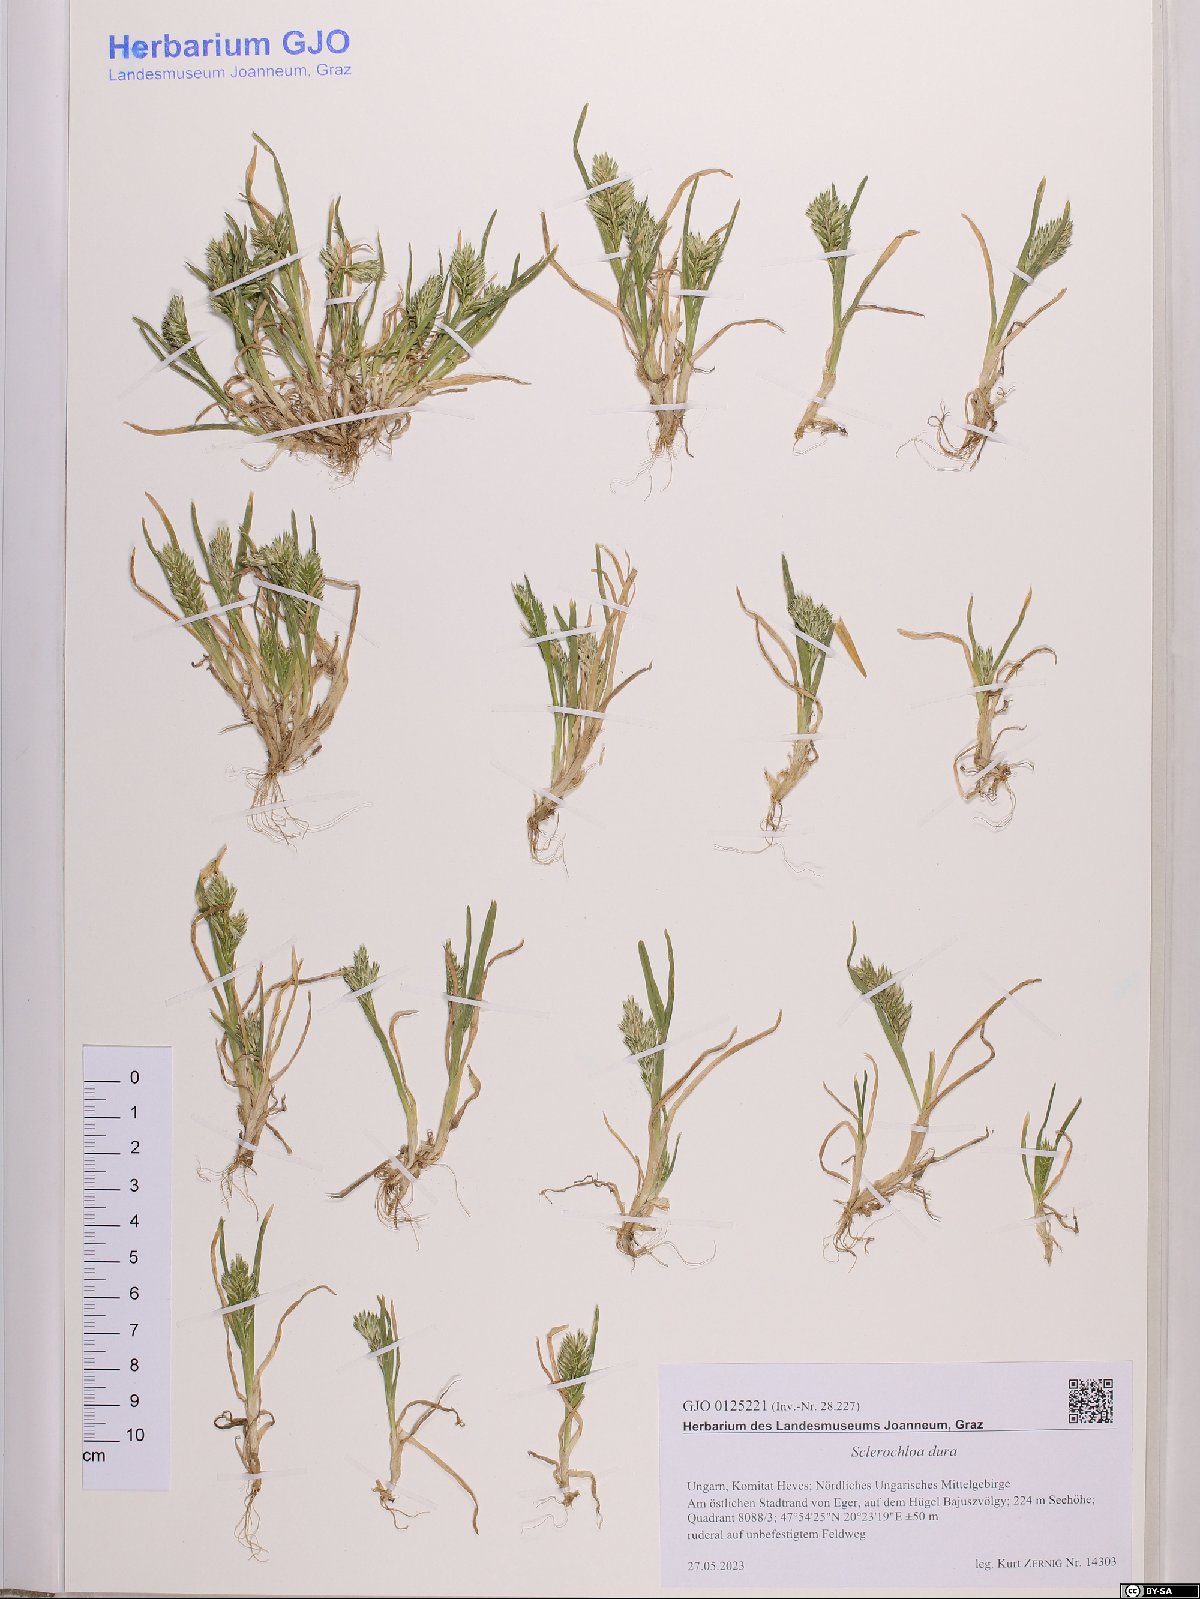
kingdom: Plantae
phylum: Tracheophyta
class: Liliopsida
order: Poales
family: Poaceae
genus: Sclerochloa
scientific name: Sclerochloa dura
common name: Common hardgrass
